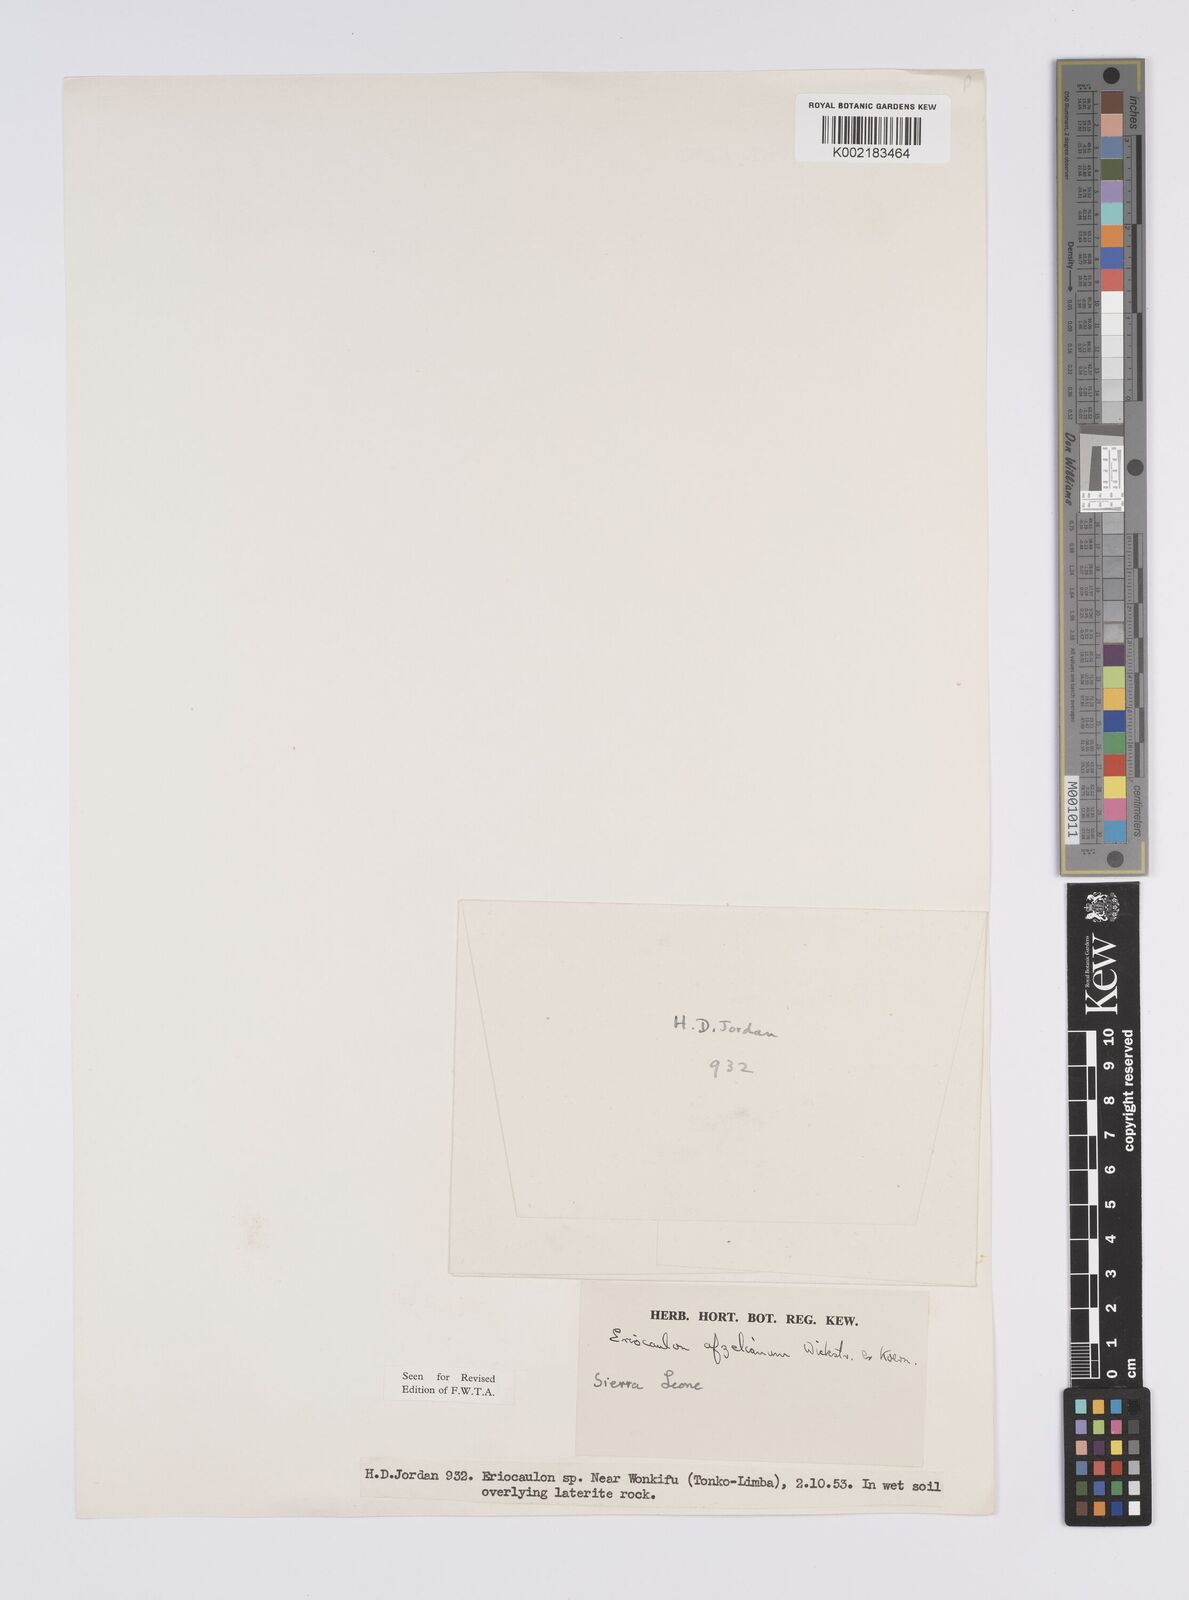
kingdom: Plantae
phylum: Tracheophyta
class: Liliopsida
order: Poales
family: Eriocaulaceae
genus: Eriocaulon
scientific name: Eriocaulon afzelianum
